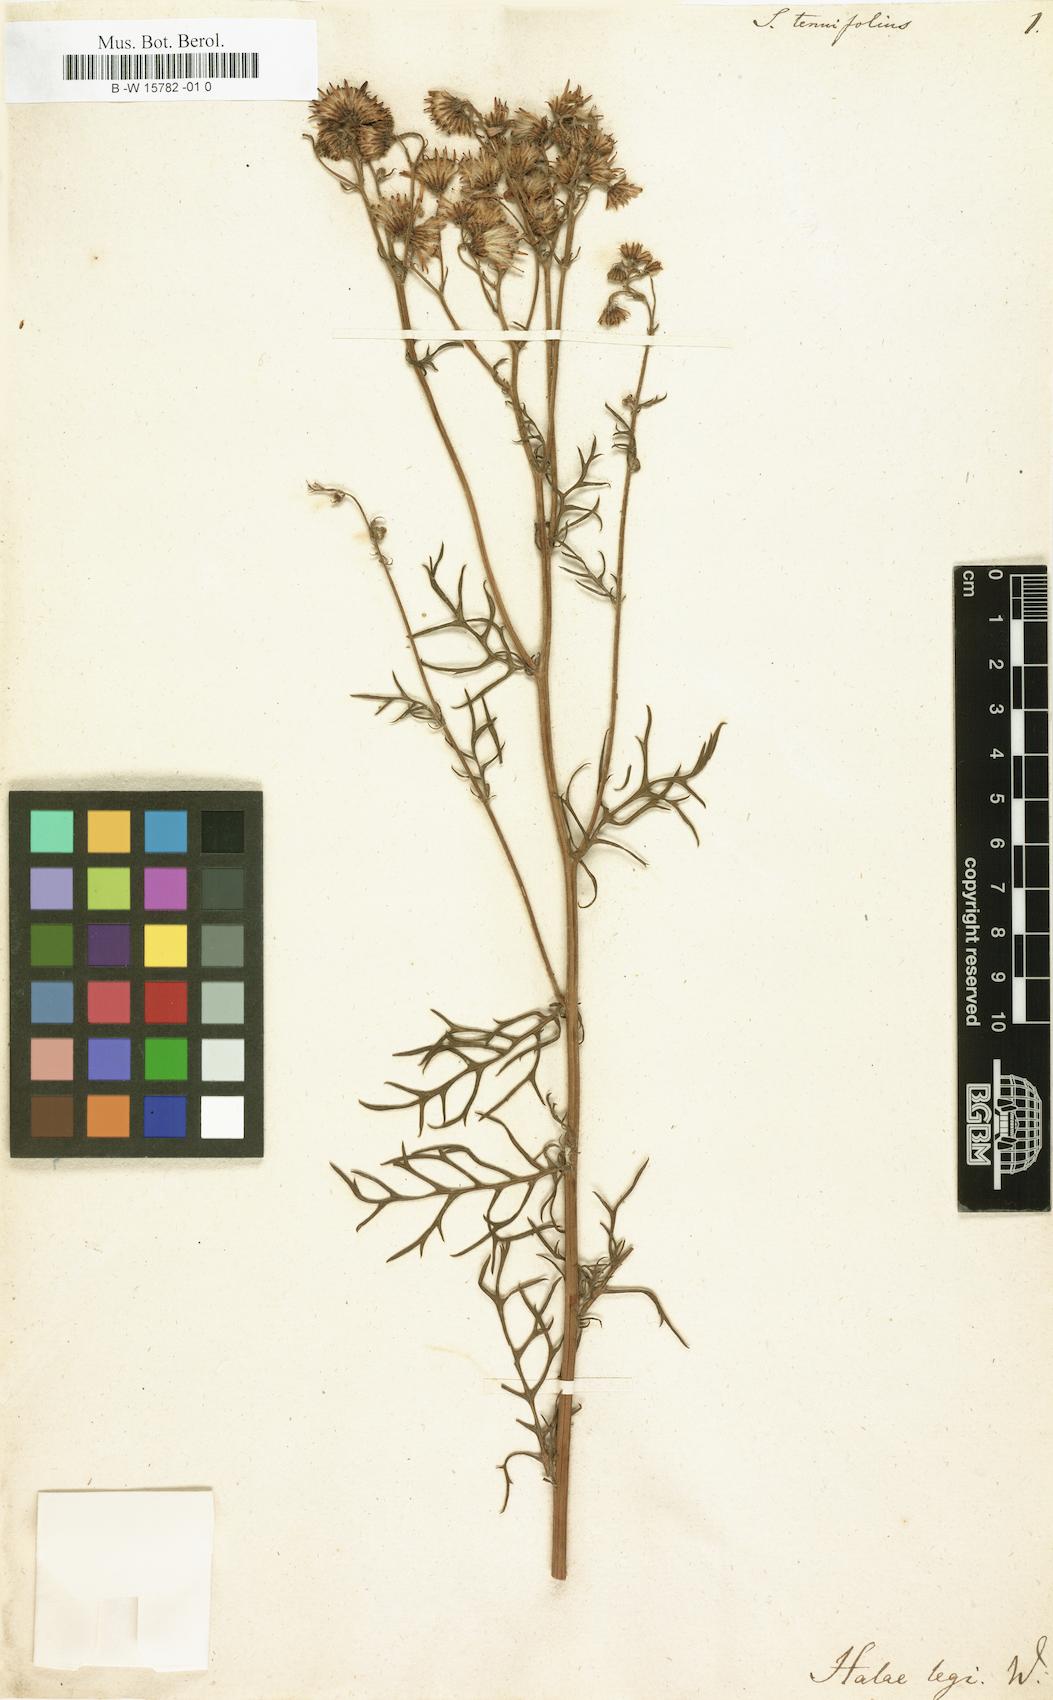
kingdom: Plantae
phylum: Tracheophyta
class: Magnoliopsida
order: Asterales
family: Asteraceae
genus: Senecio
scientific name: Senecio tenuifolius
